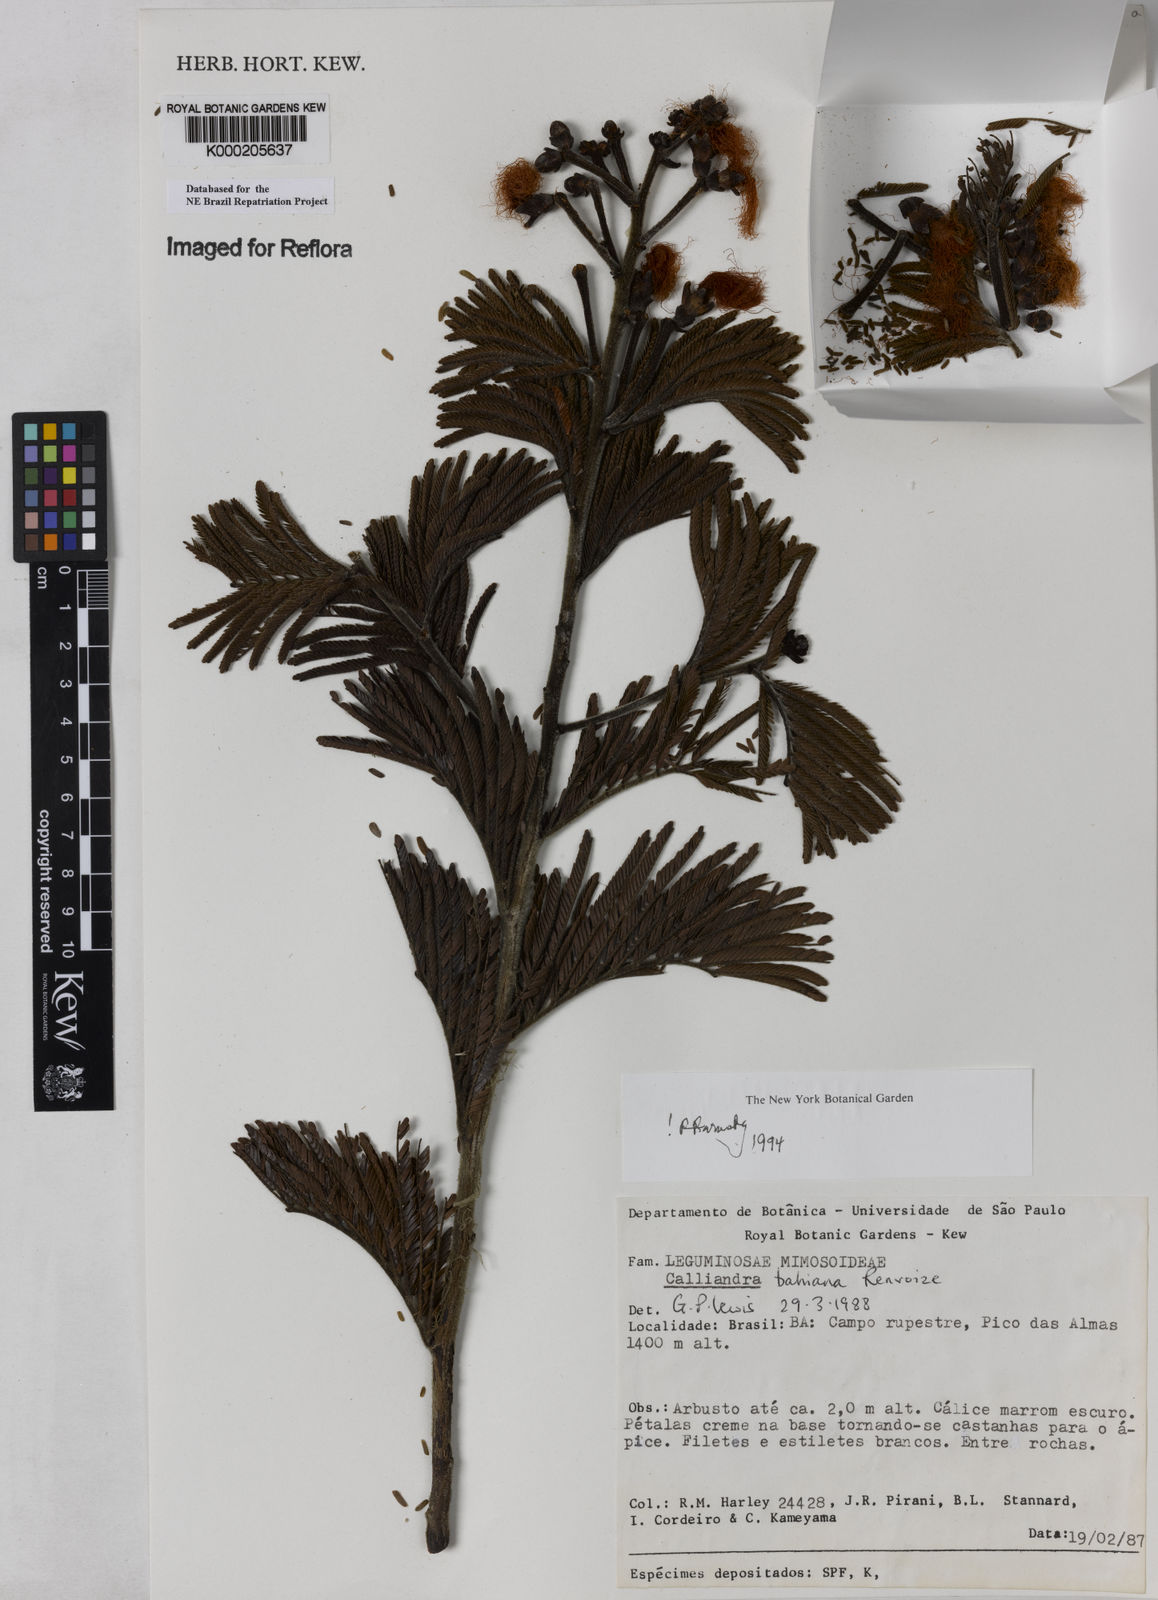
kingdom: Plantae
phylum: Tracheophyta
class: Magnoliopsida
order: Fabales
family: Fabaceae
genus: Calliandra
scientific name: Calliandra bahiana
